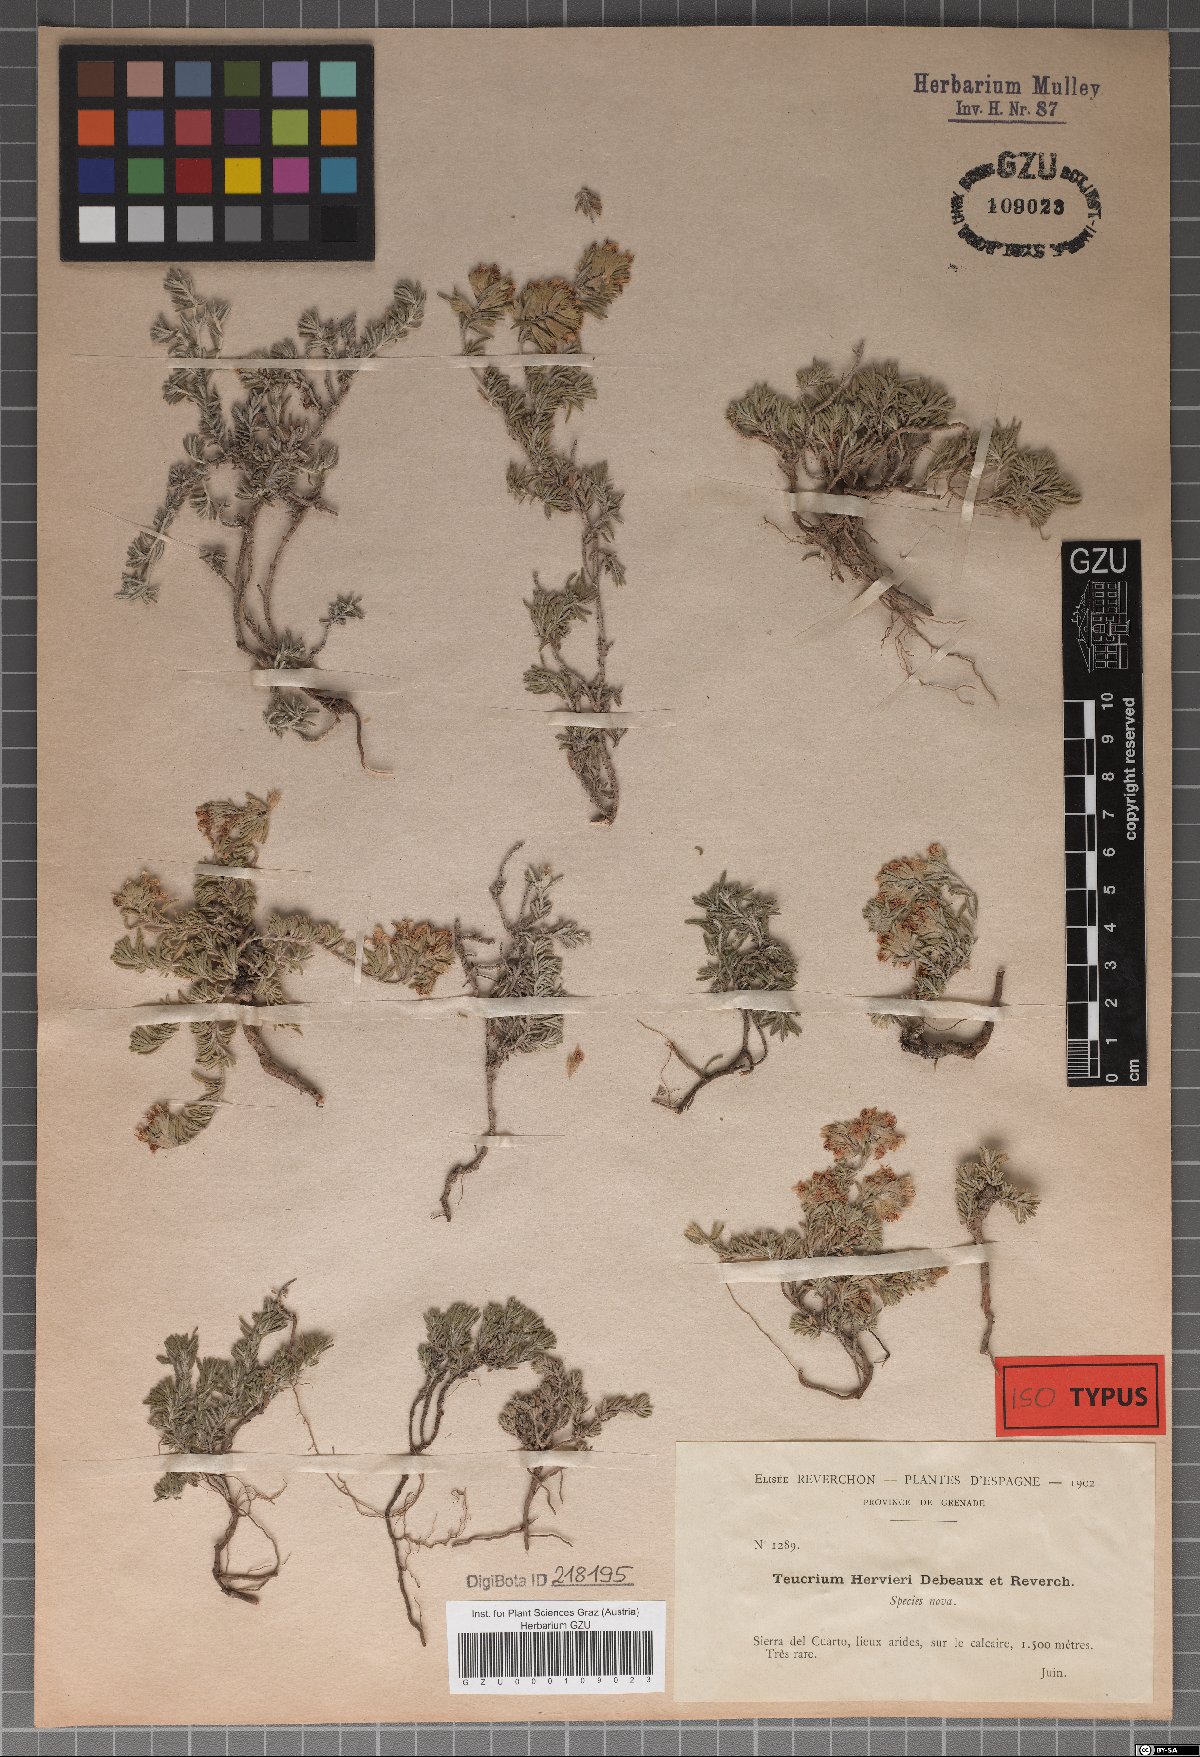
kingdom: Plantae
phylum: Tracheophyta
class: Magnoliopsida
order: Lamiales
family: Lamiaceae
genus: Teucrium
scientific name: Teucrium thymifolium
